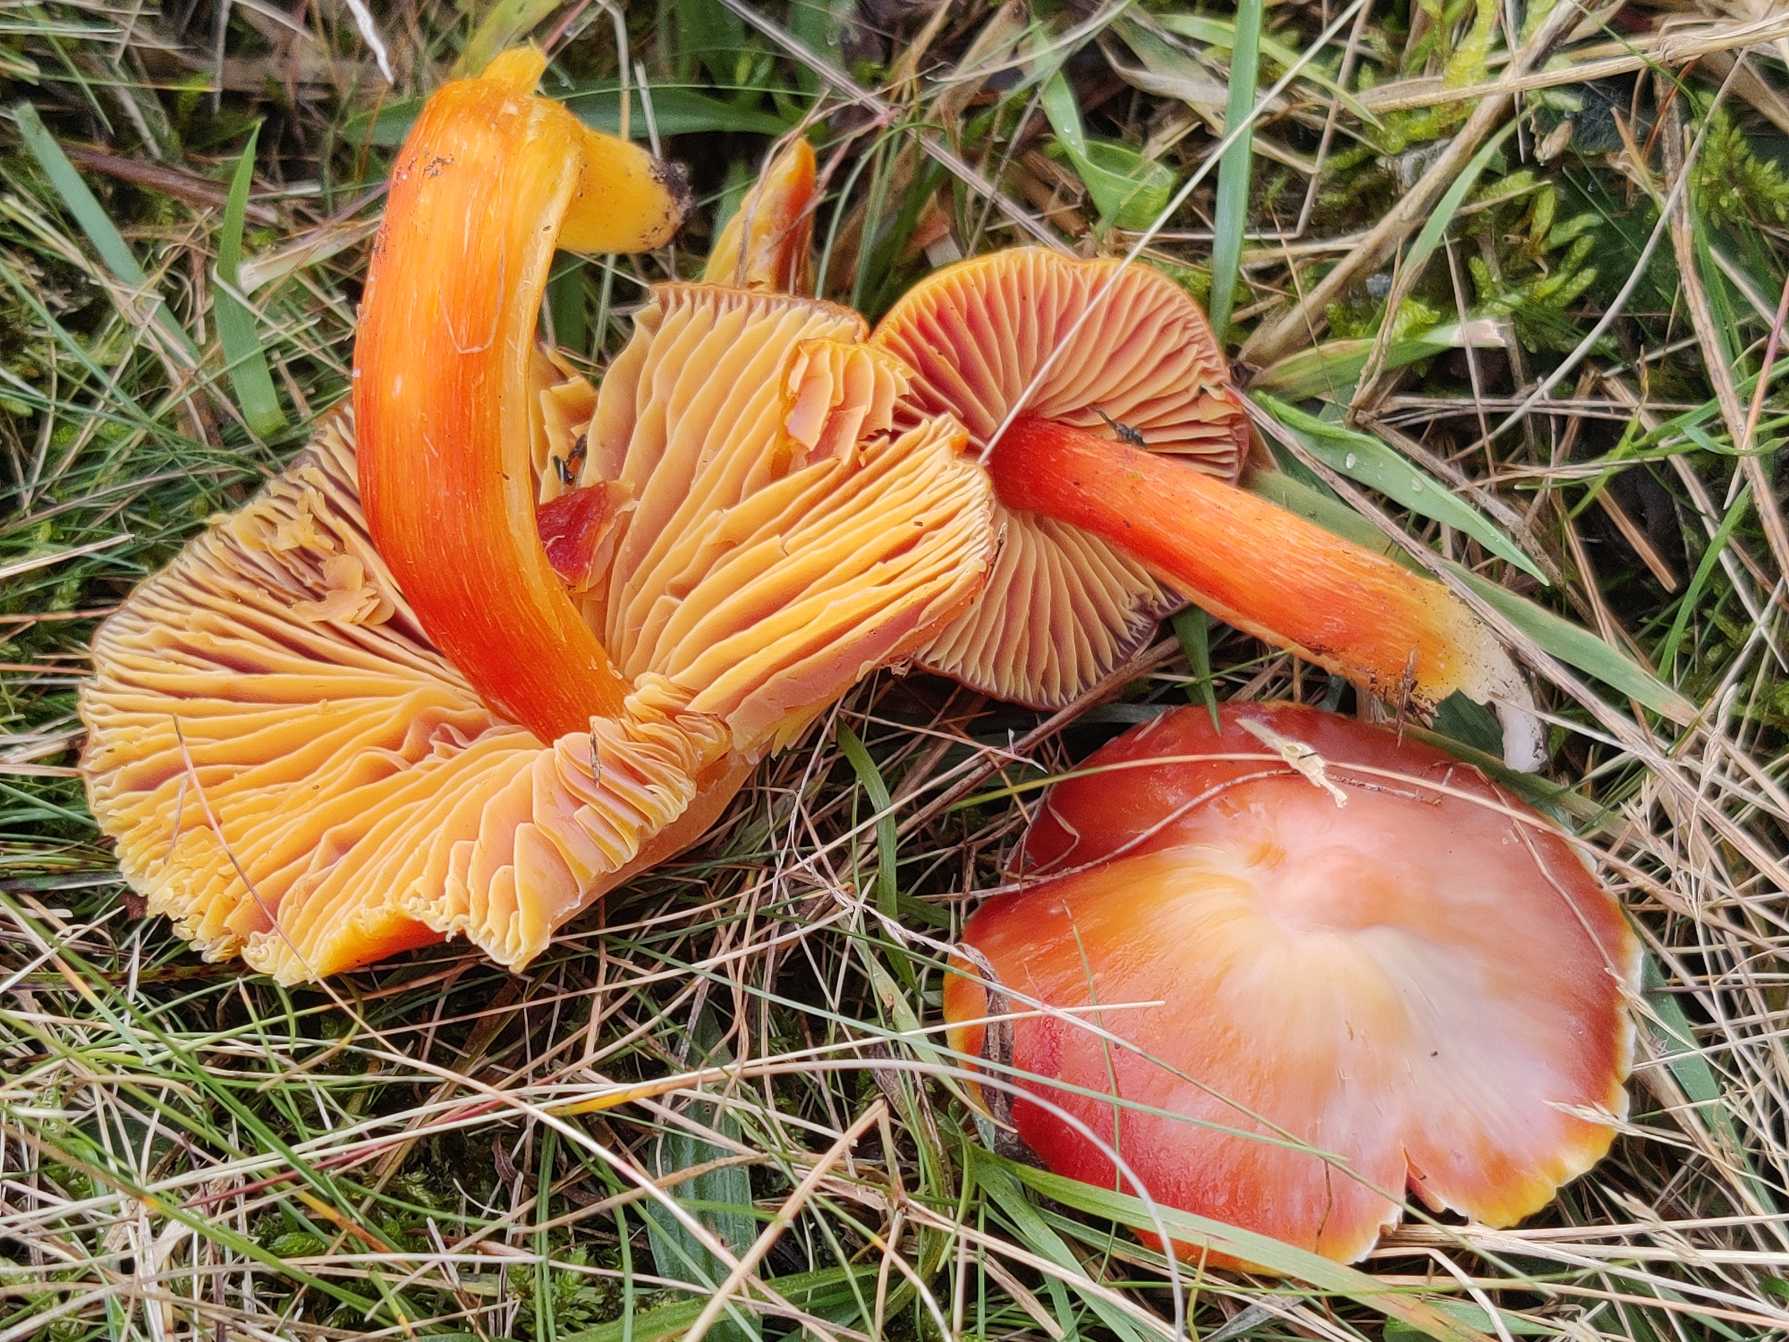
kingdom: Fungi
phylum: Basidiomycota
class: Agaricomycetes
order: Agaricales
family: Hygrophoraceae
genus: Hygrocybe
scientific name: Hygrocybe punicea
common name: Skarlagen-vokshat
